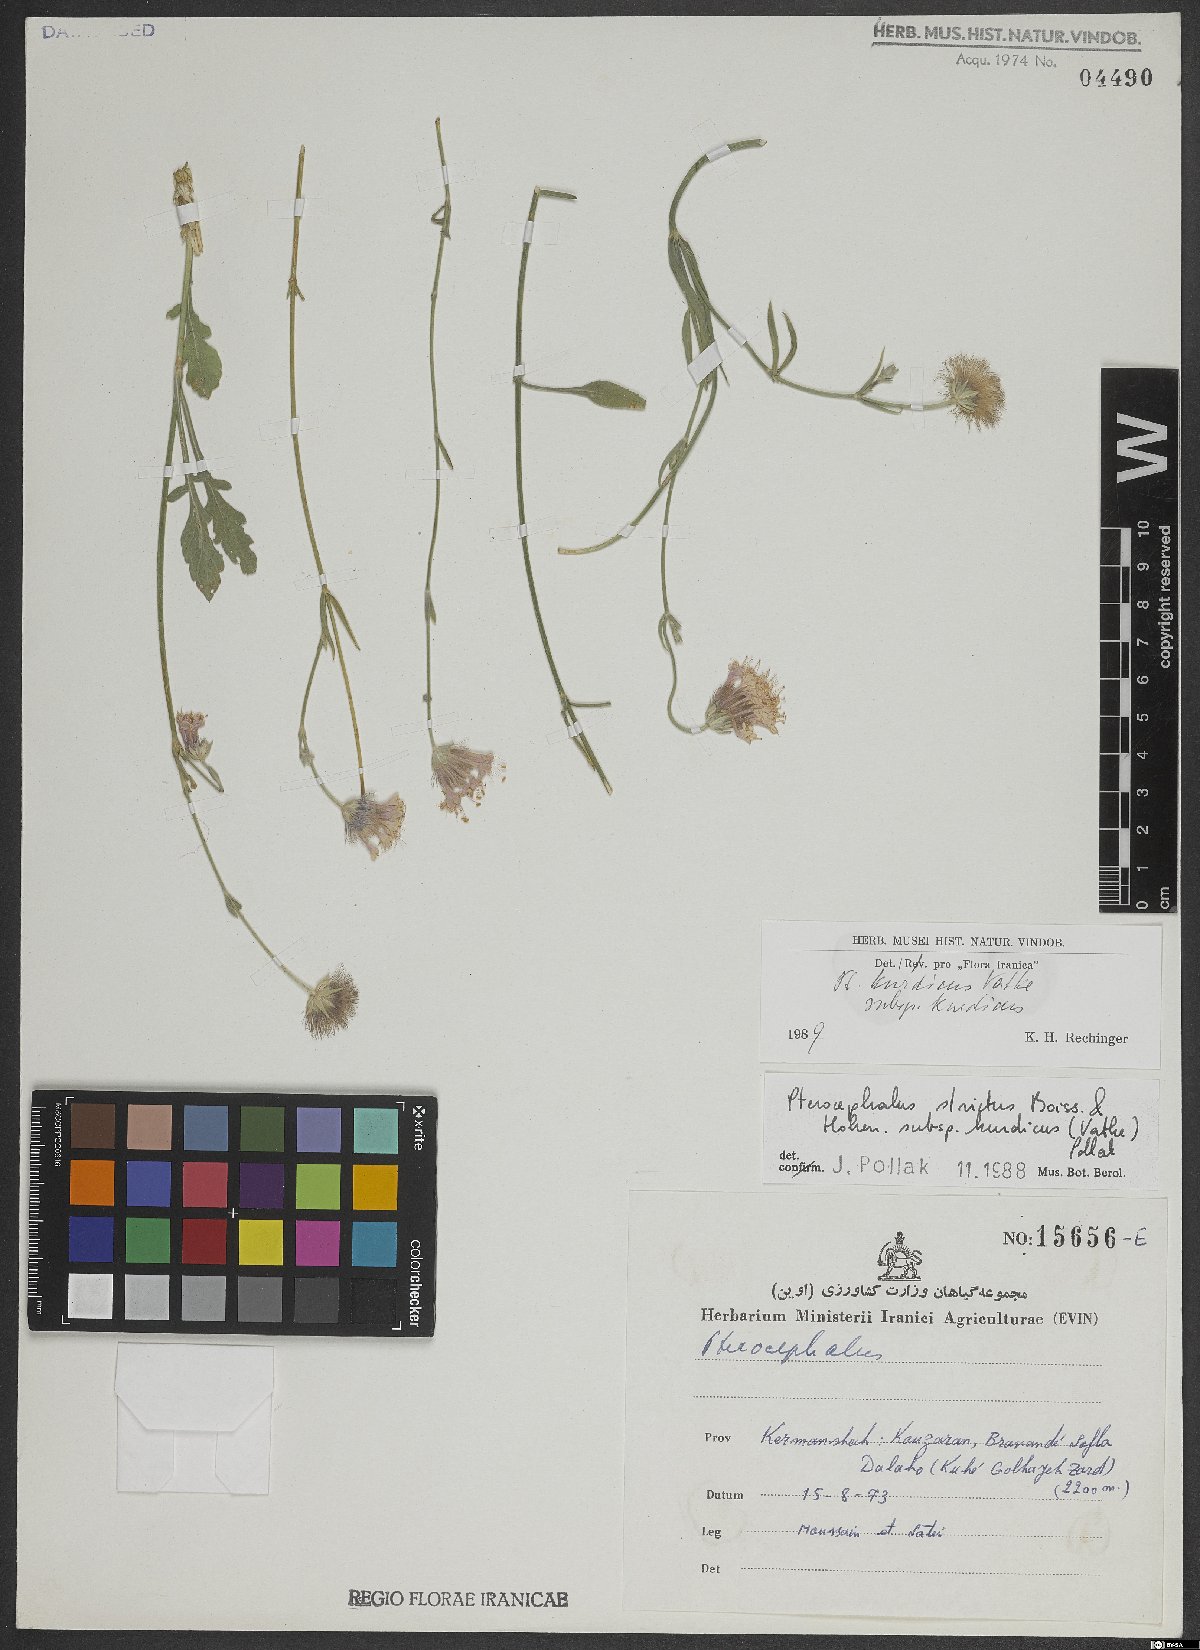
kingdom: Plantae
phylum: Tracheophyta
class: Magnoliopsida
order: Dipsacales
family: Caprifoliaceae
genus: Pterocephalus
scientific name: Pterocephalus kurdicus
